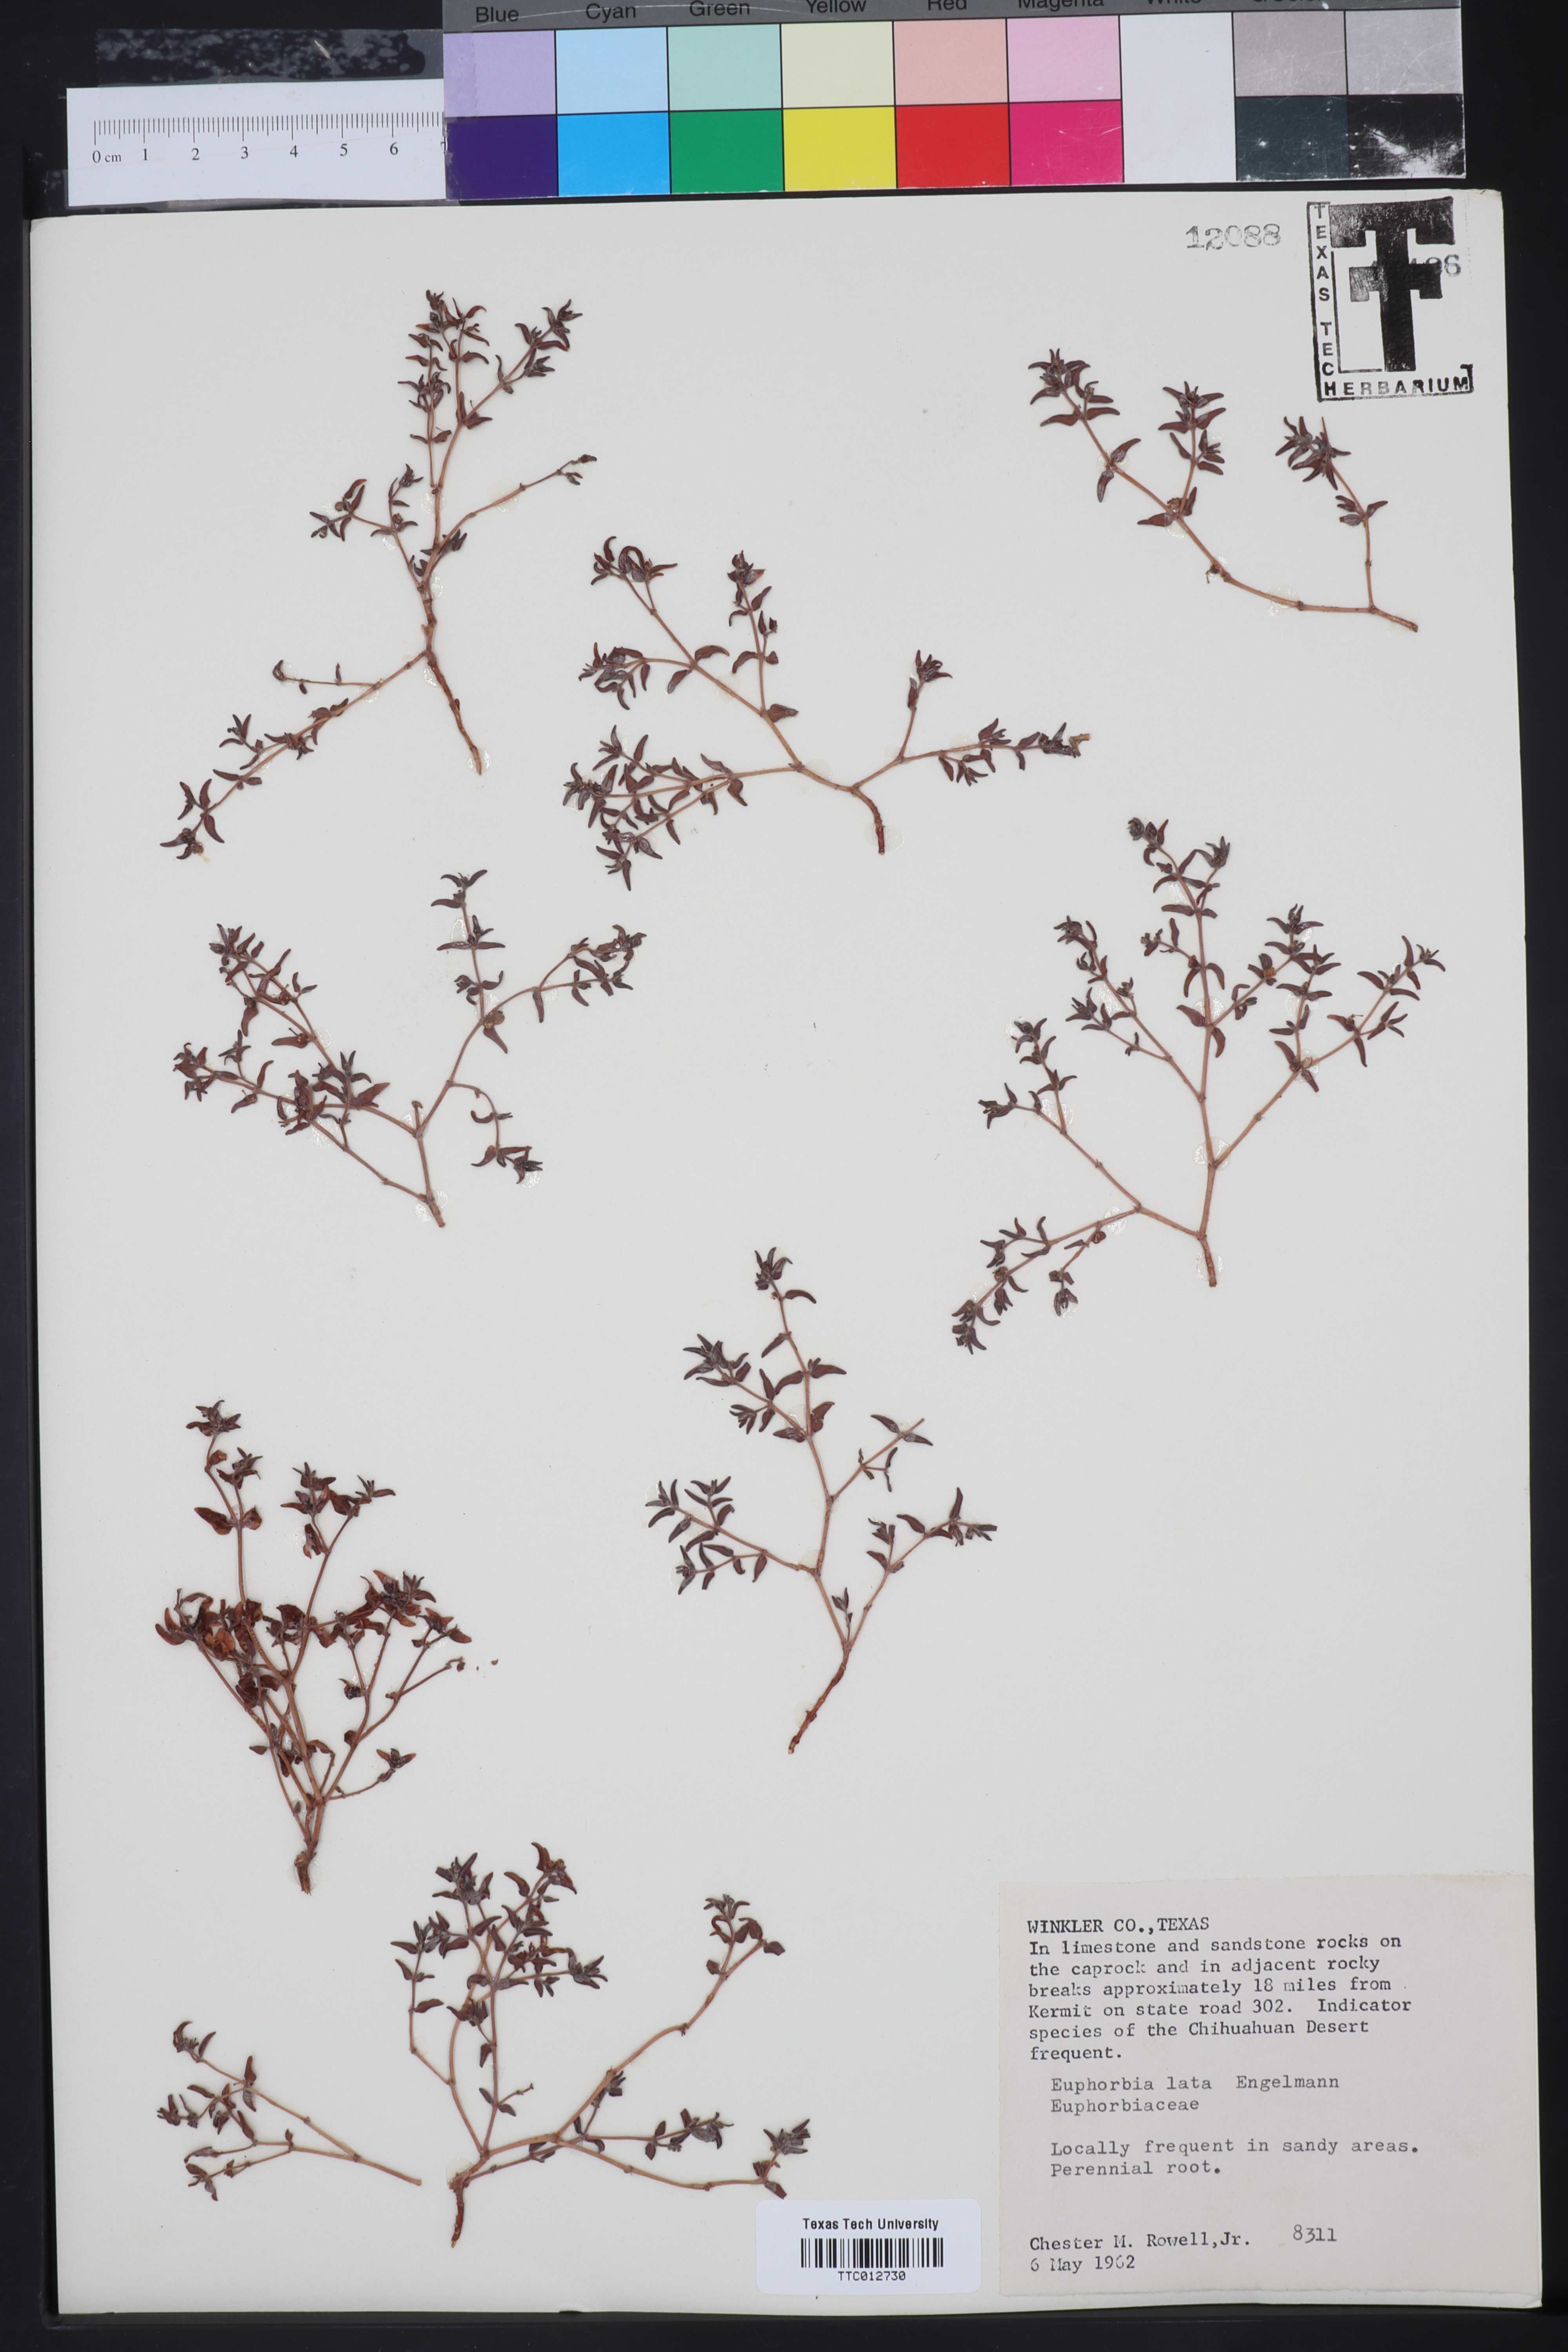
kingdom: Plantae
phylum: Tracheophyta
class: Magnoliopsida
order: Malpighiales
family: Euphorbiaceae
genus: Euphorbia
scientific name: Euphorbia lata
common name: Hoary euphorbia
